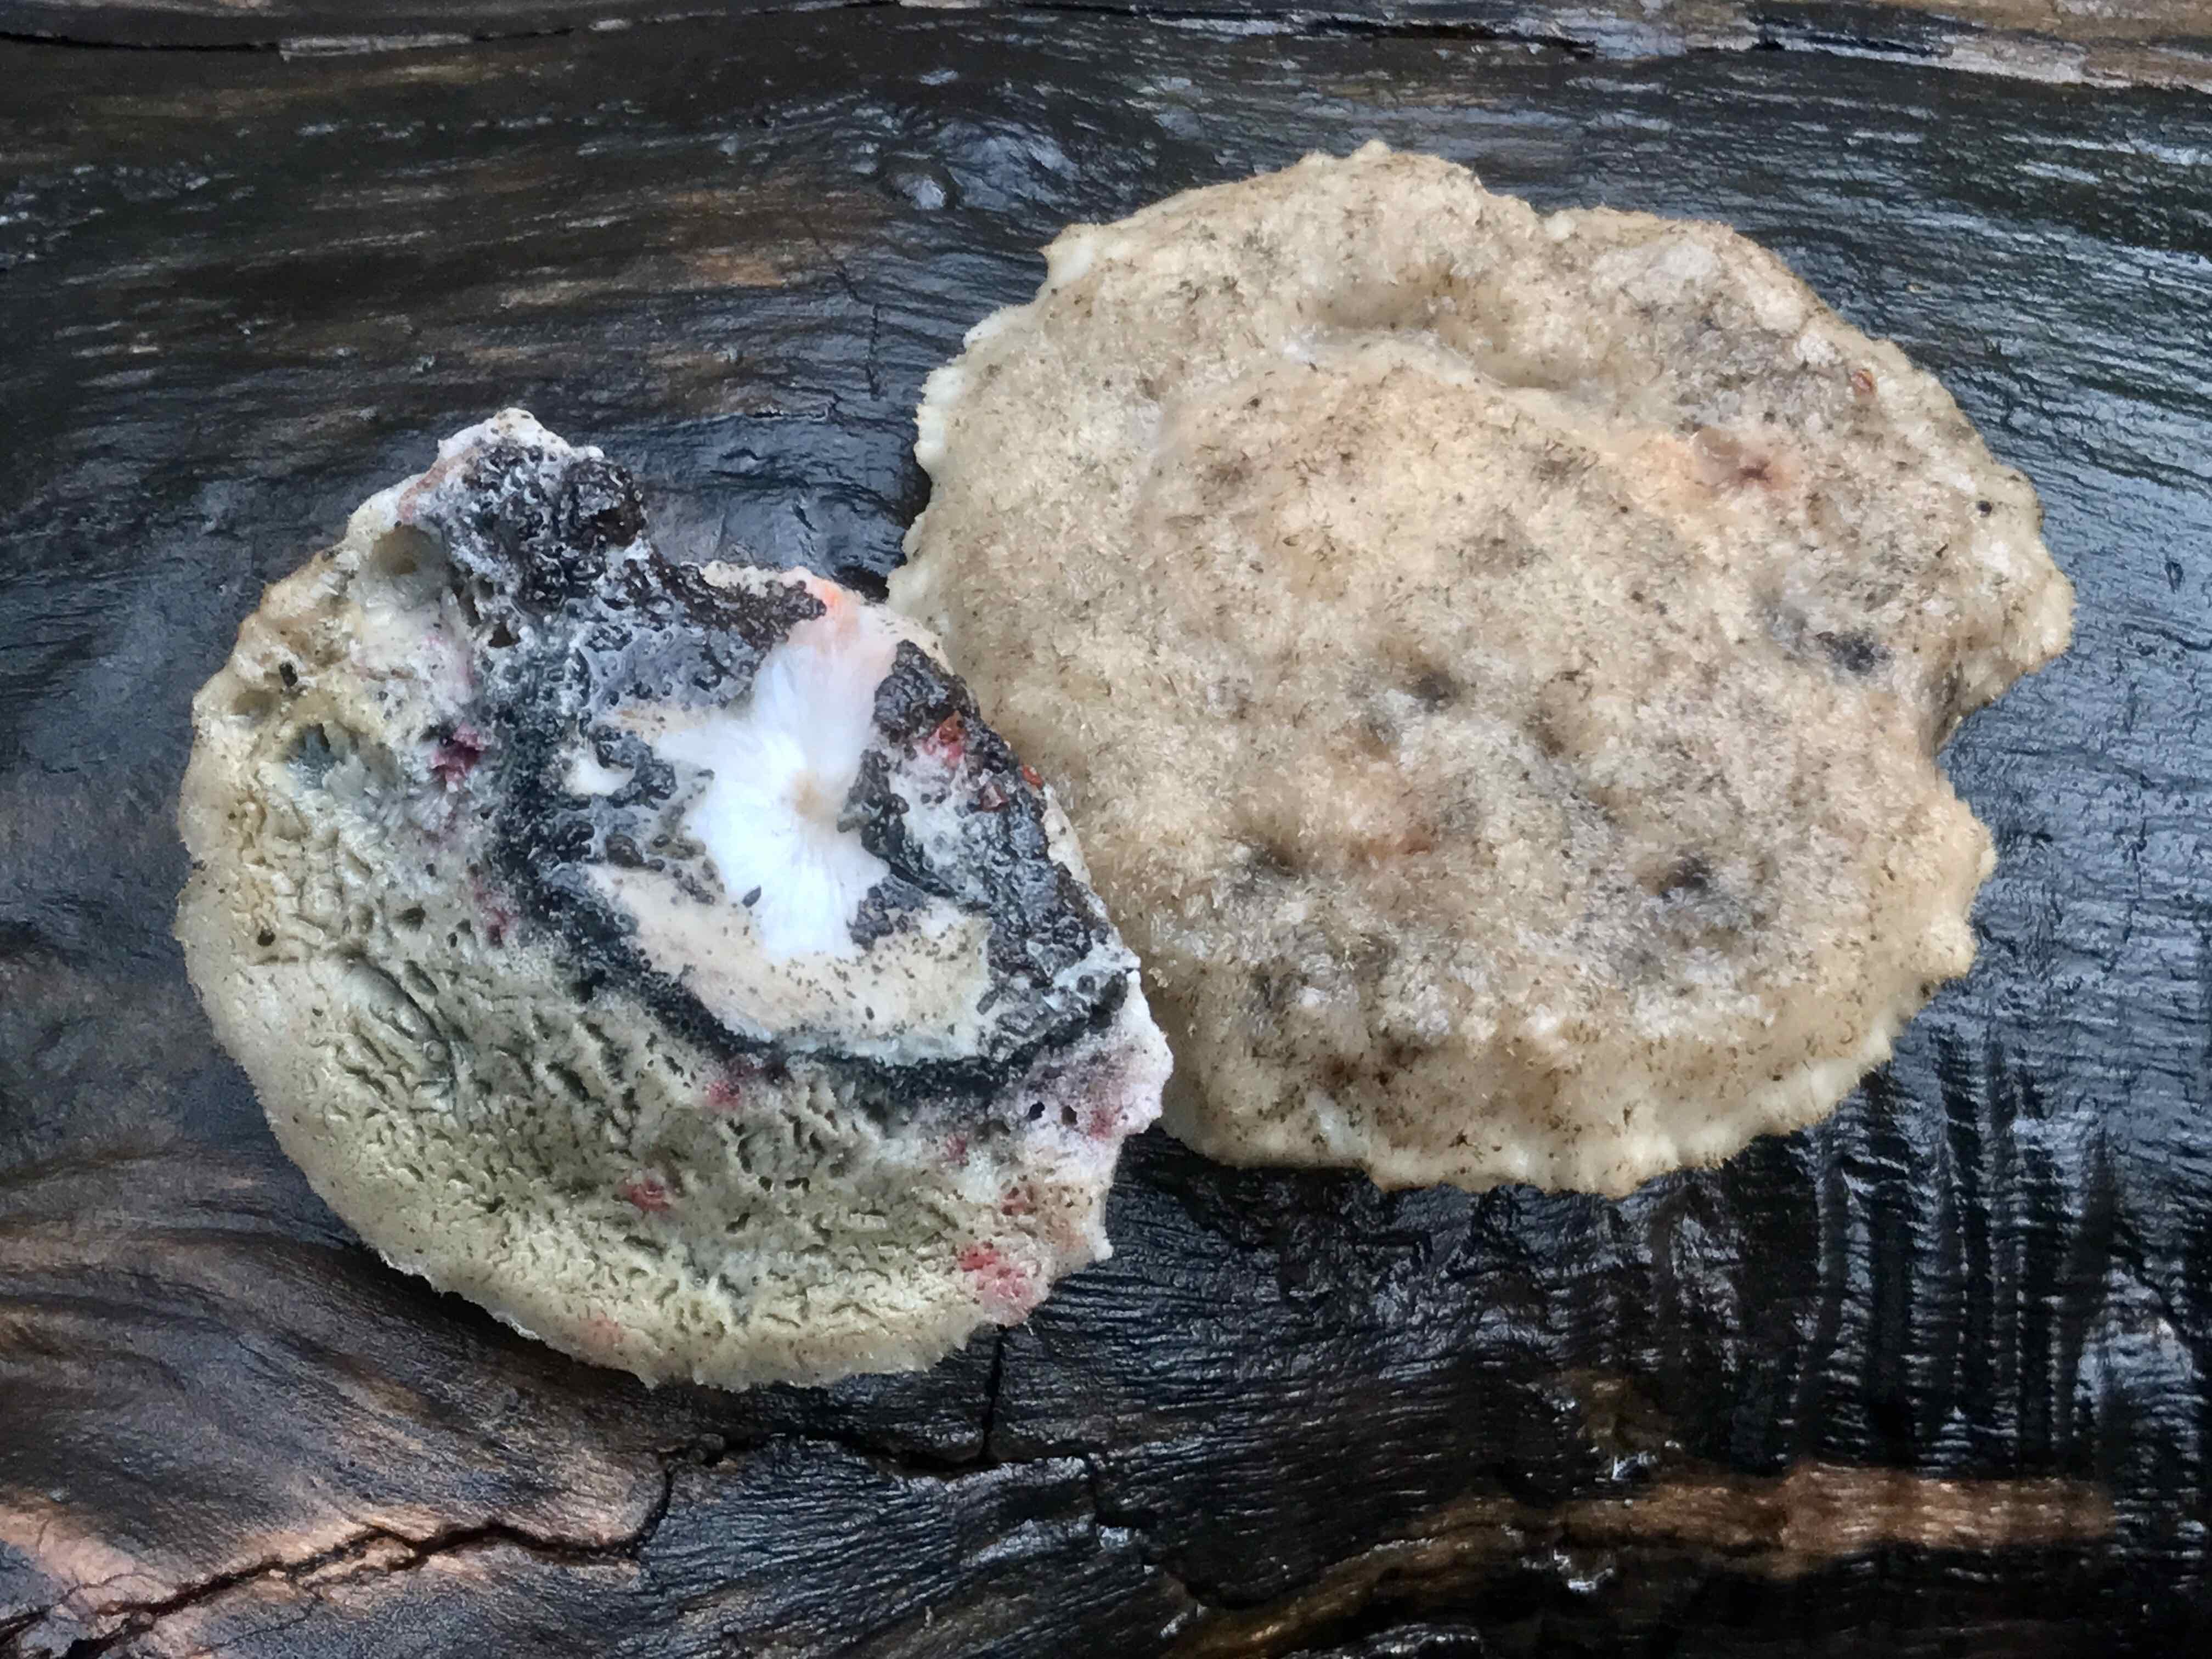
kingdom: Fungi
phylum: Basidiomycota
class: Agaricomycetes
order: Polyporales
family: Polyporaceae
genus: Cyanosporus
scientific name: Cyanosporus caesius
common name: blålig kødporesvamp
